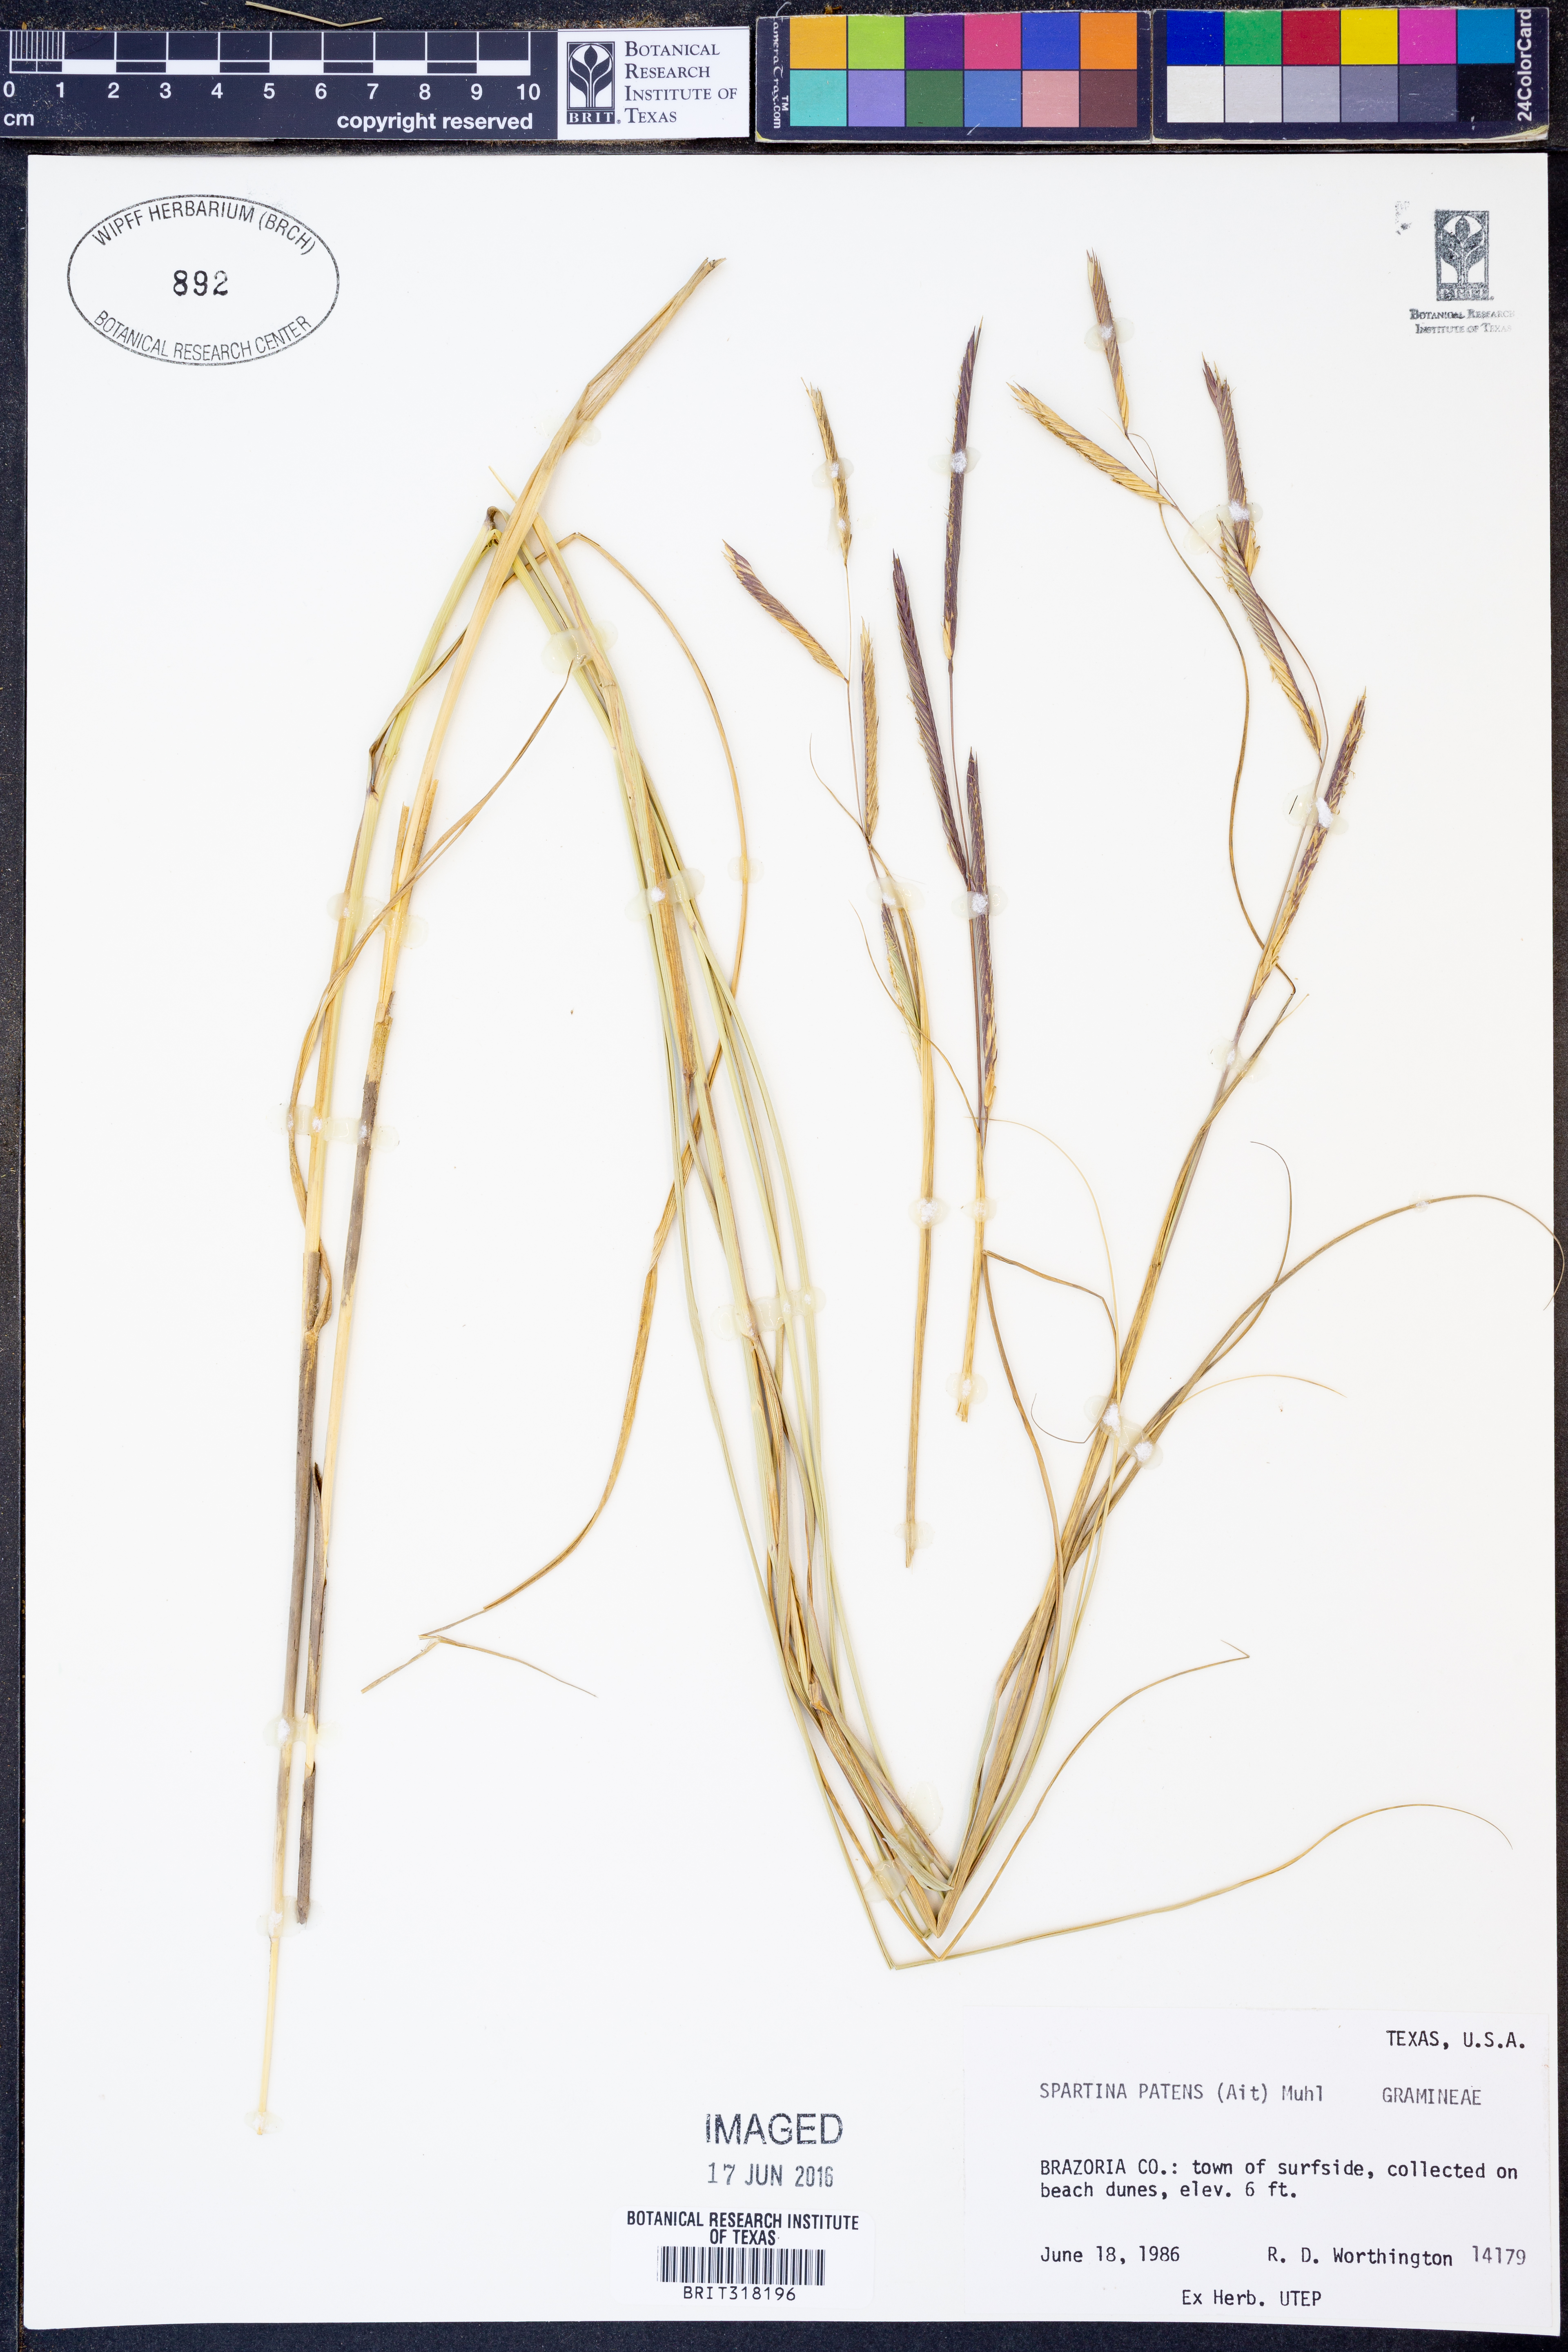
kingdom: Plantae
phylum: Tracheophyta
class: Liliopsida
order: Poales
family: Poaceae
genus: Sporobolus
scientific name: Sporobolus pumilus
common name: Highwater grass
